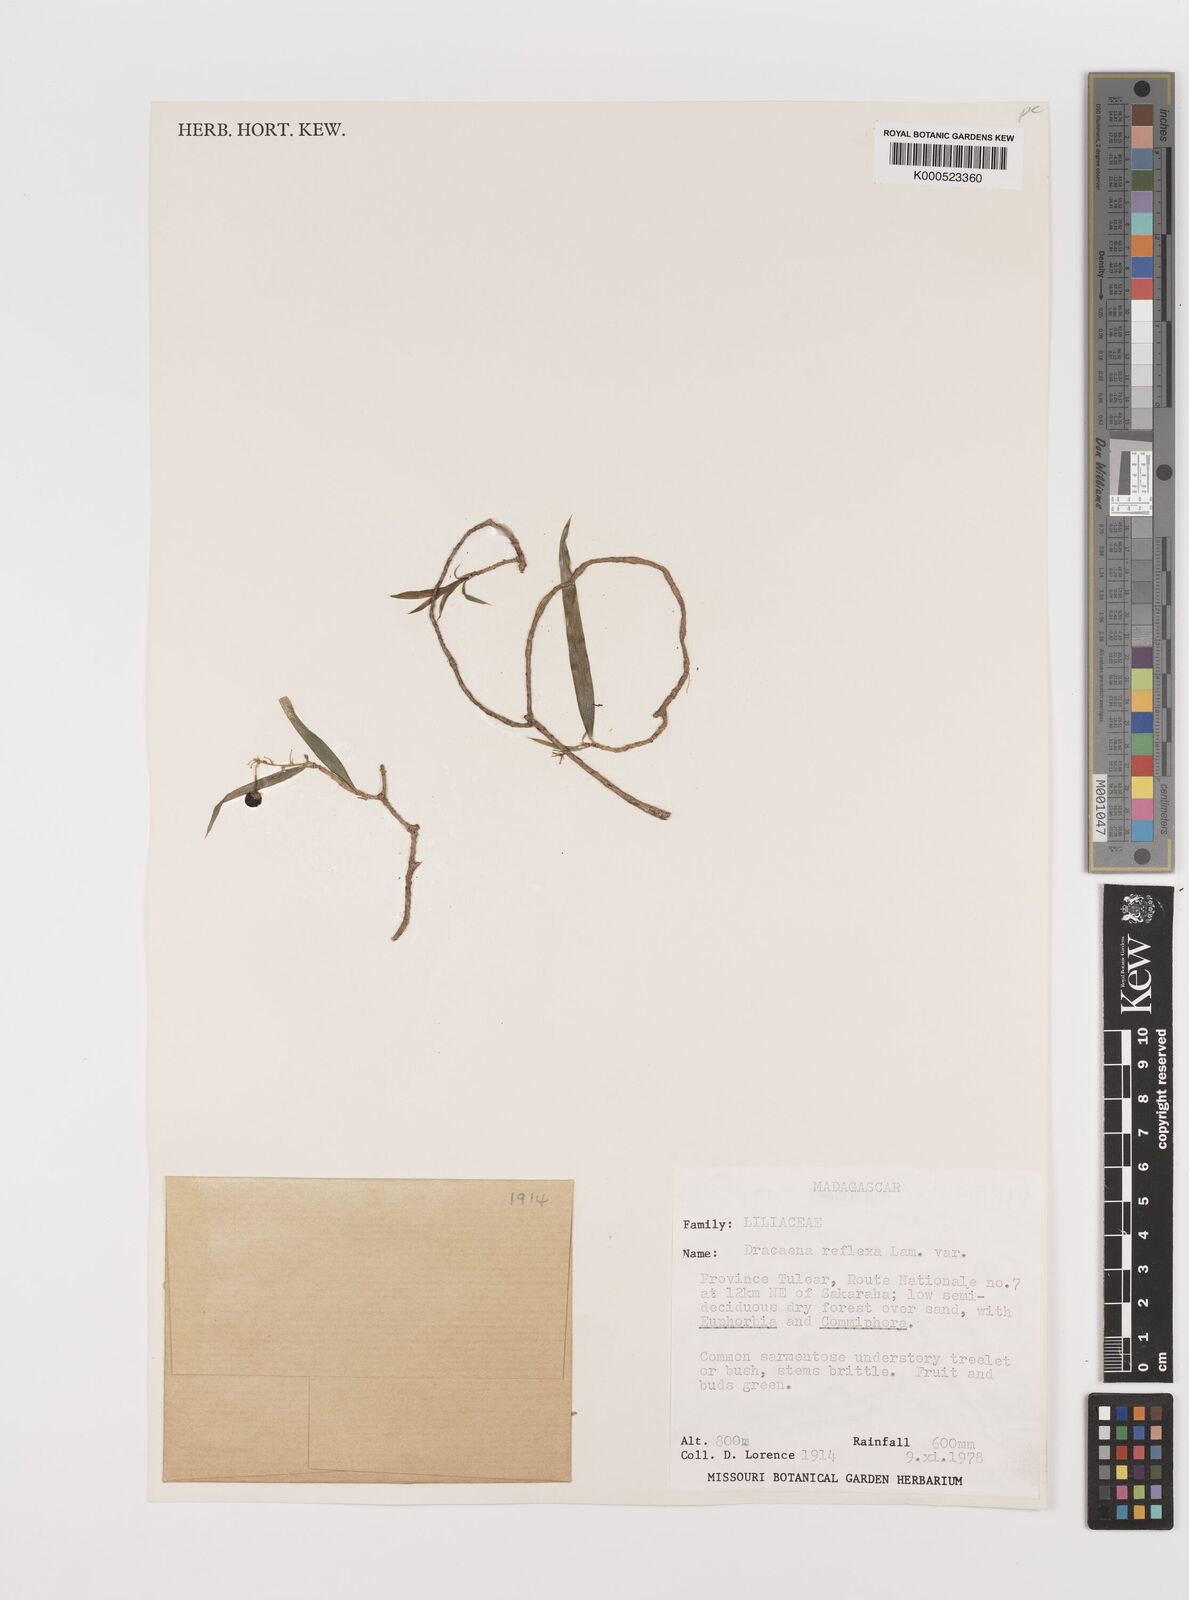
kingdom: Plantae
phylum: Tracheophyta
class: Liliopsida
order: Asparagales
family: Asparagaceae
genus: Dracaena
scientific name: Dracaena reflexa
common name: Song-of-india
